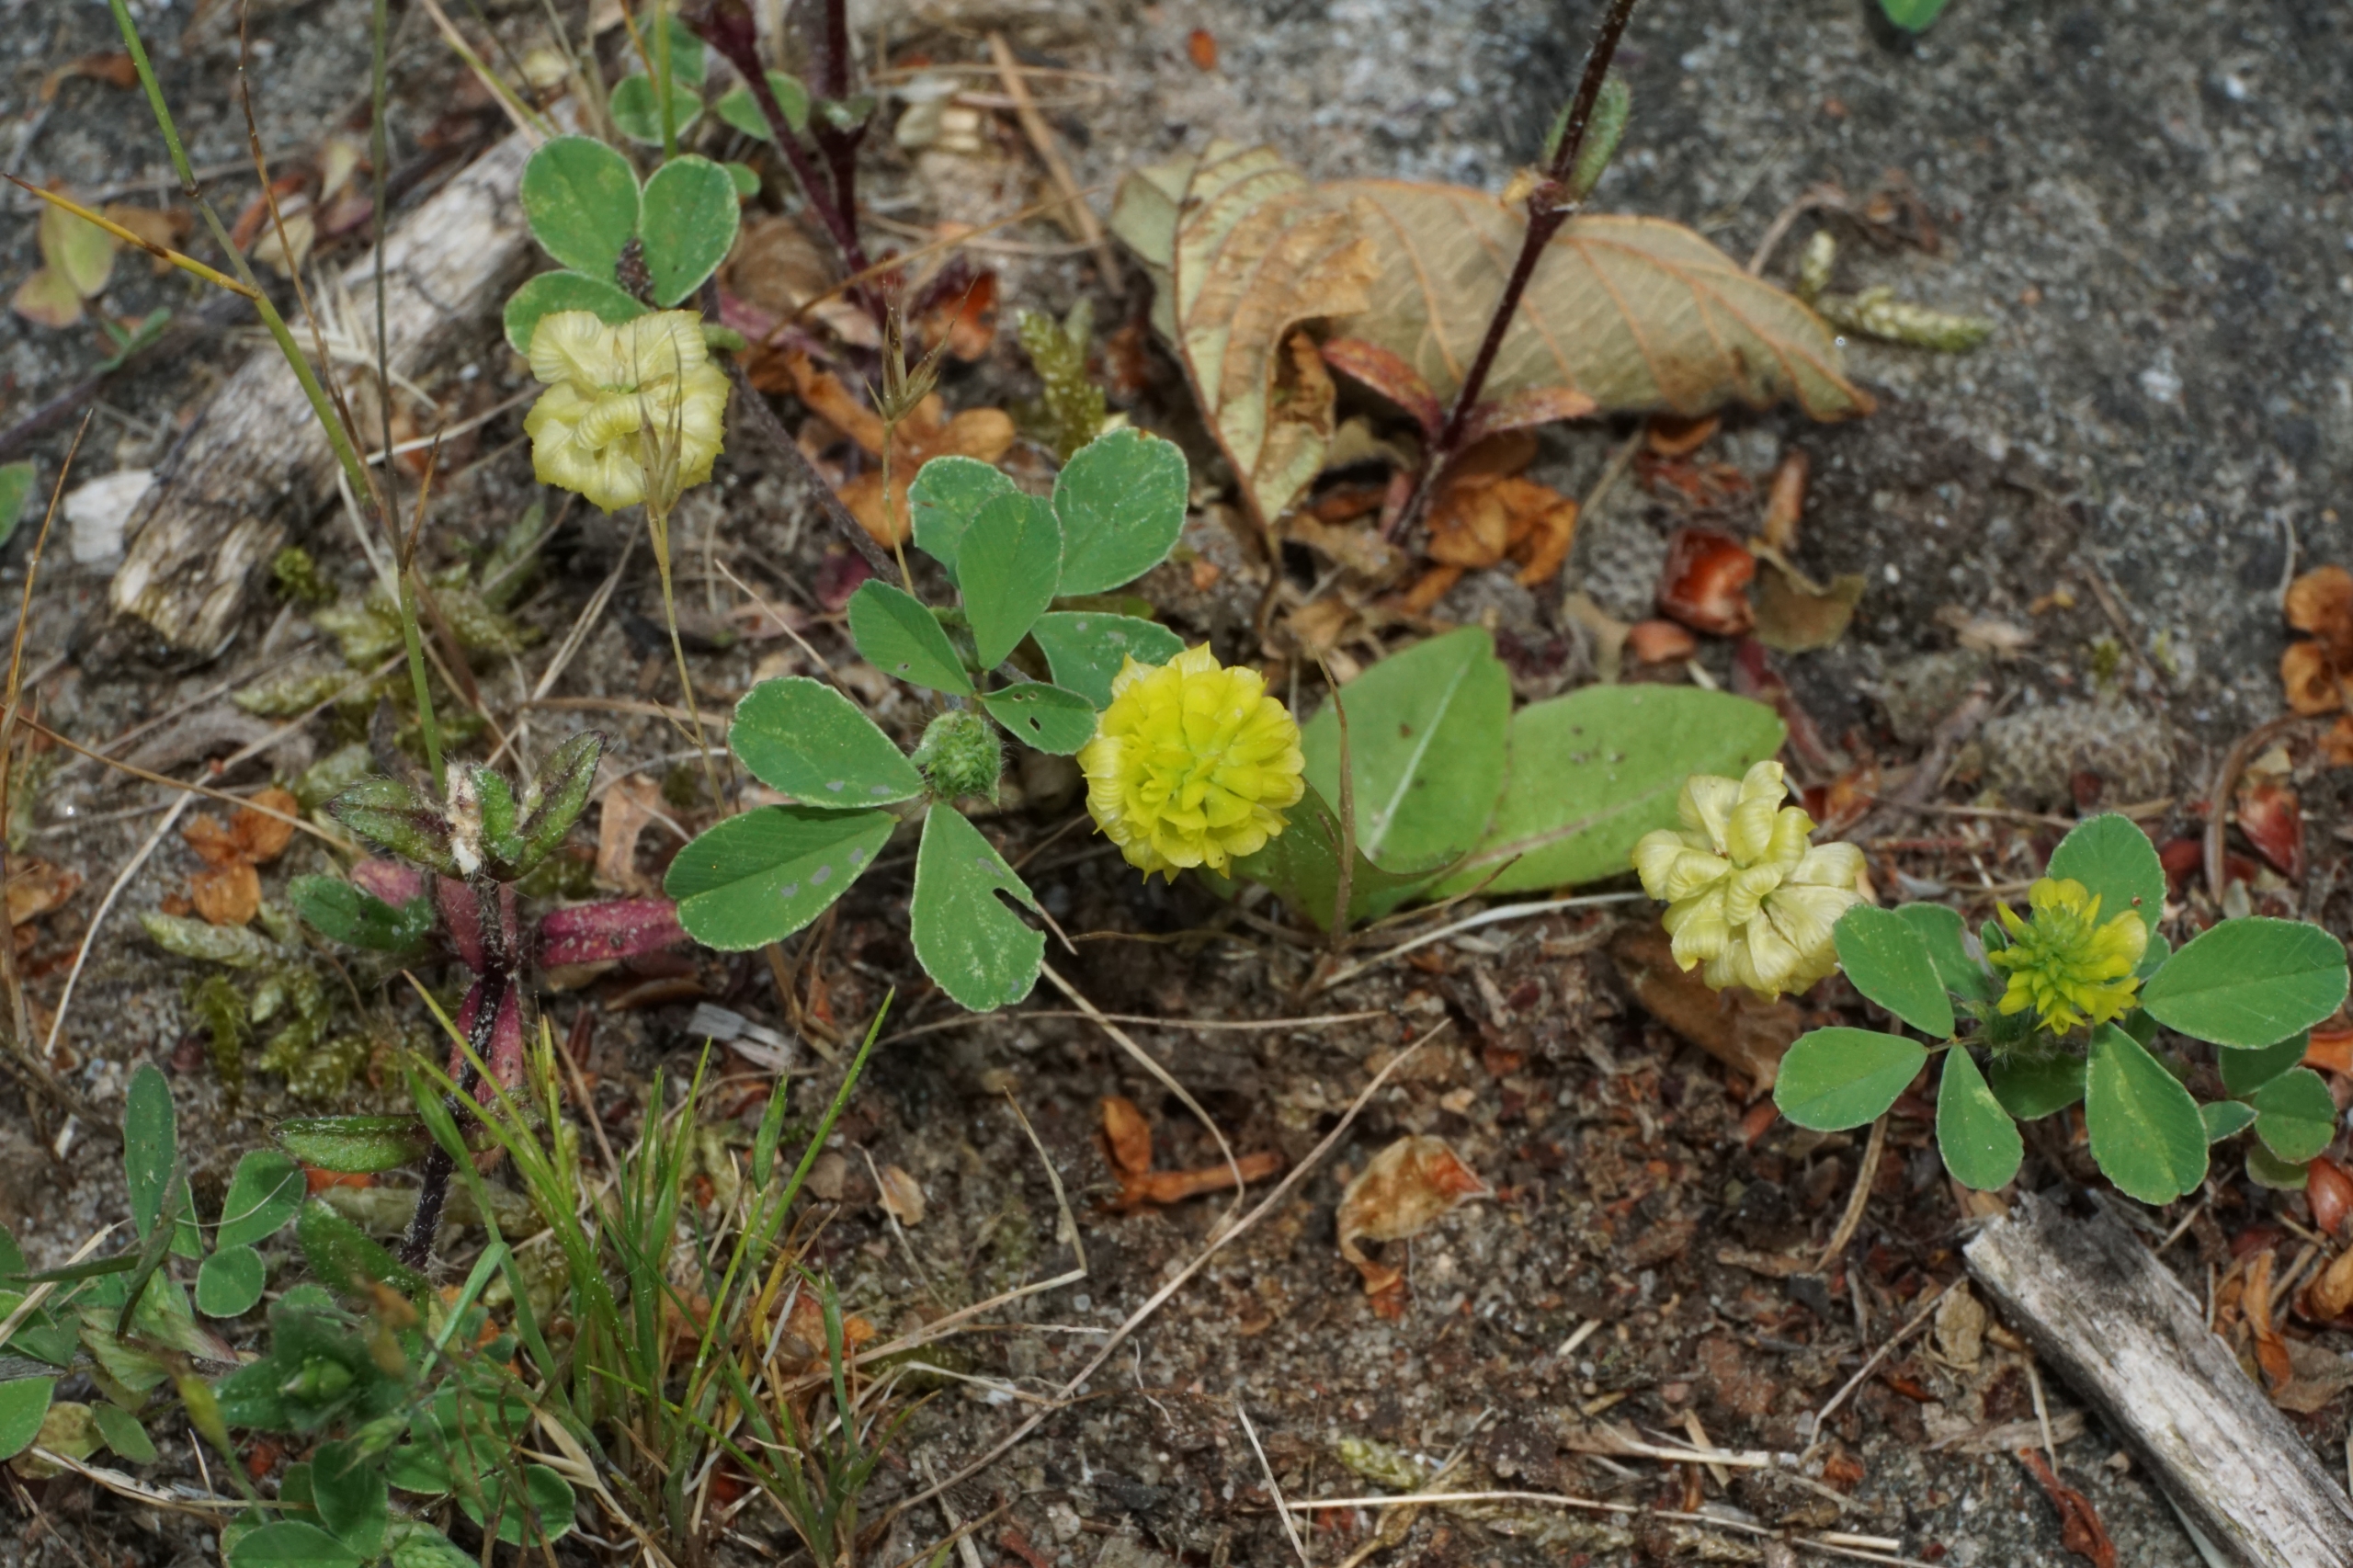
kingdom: Plantae
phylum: Tracheophyta
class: Magnoliopsida
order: Fabales
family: Fabaceae
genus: Trifolium
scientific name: Trifolium campestre
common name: Gul kløver
